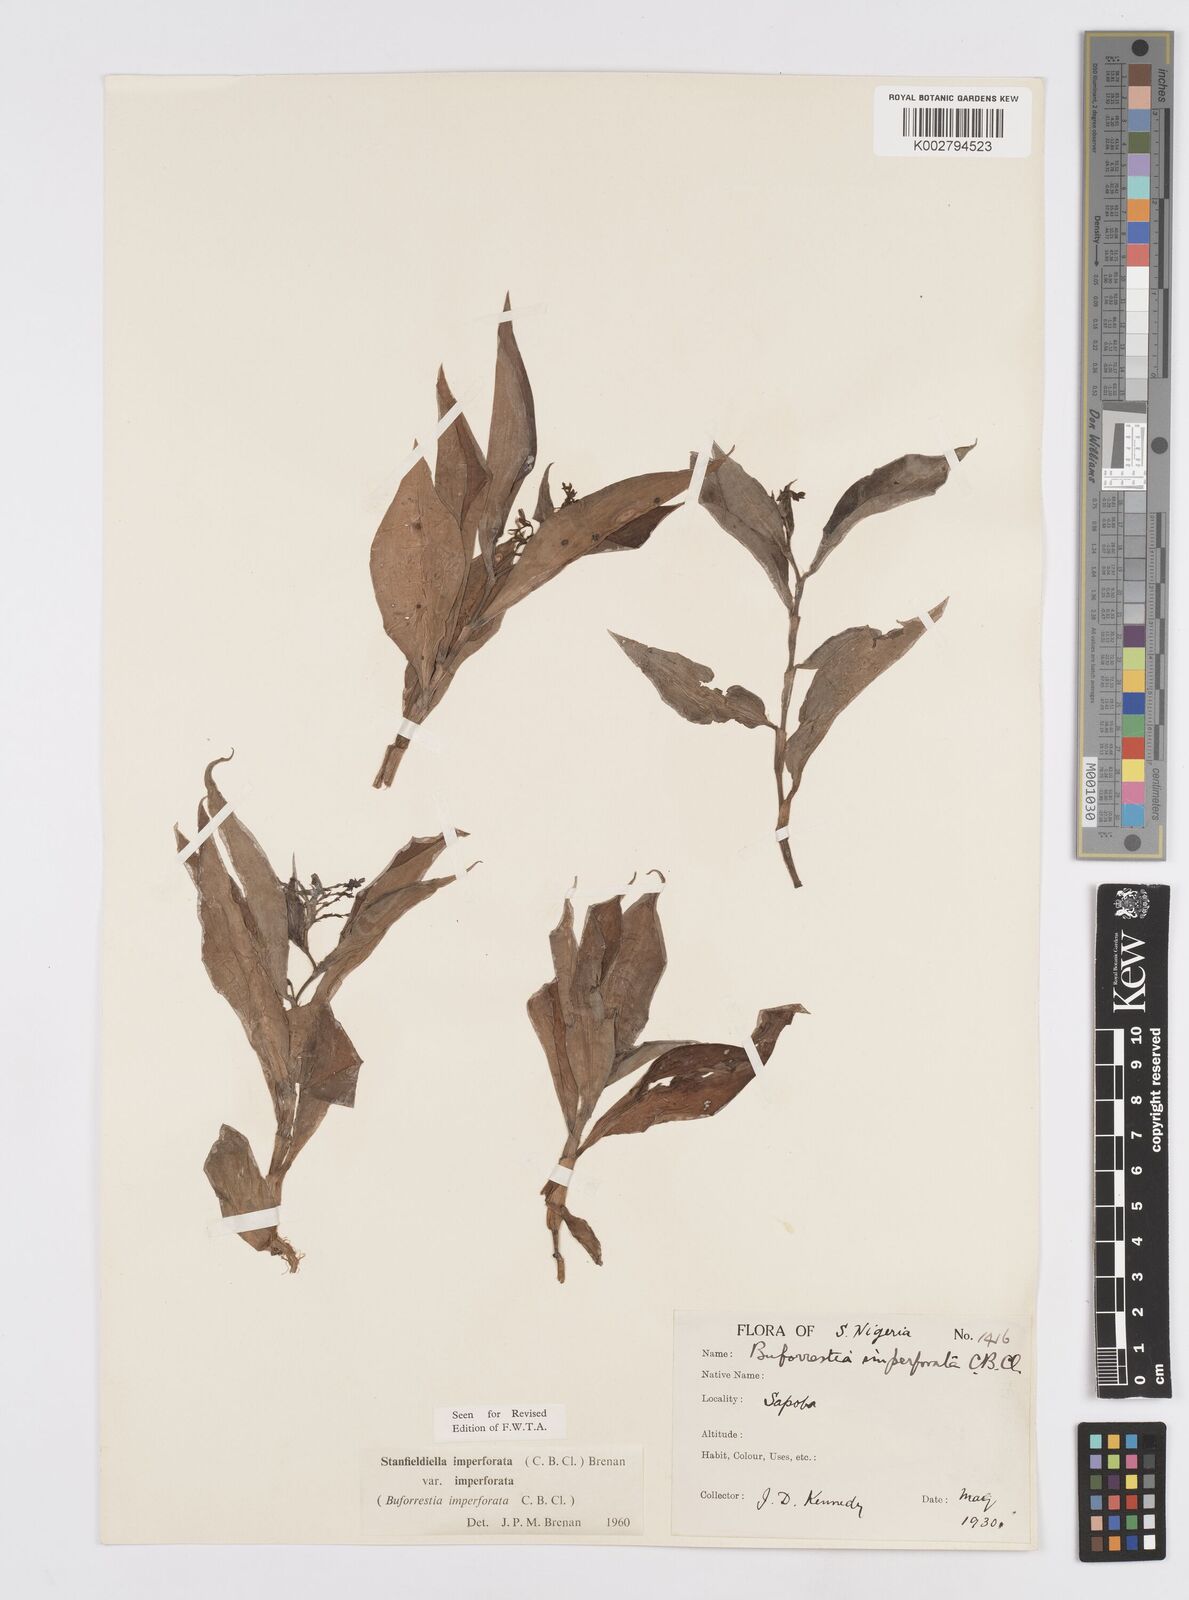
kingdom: Plantae
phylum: Tracheophyta
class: Liliopsida
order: Commelinales
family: Commelinaceae
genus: Stanfieldiella
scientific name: Stanfieldiella imperforata
